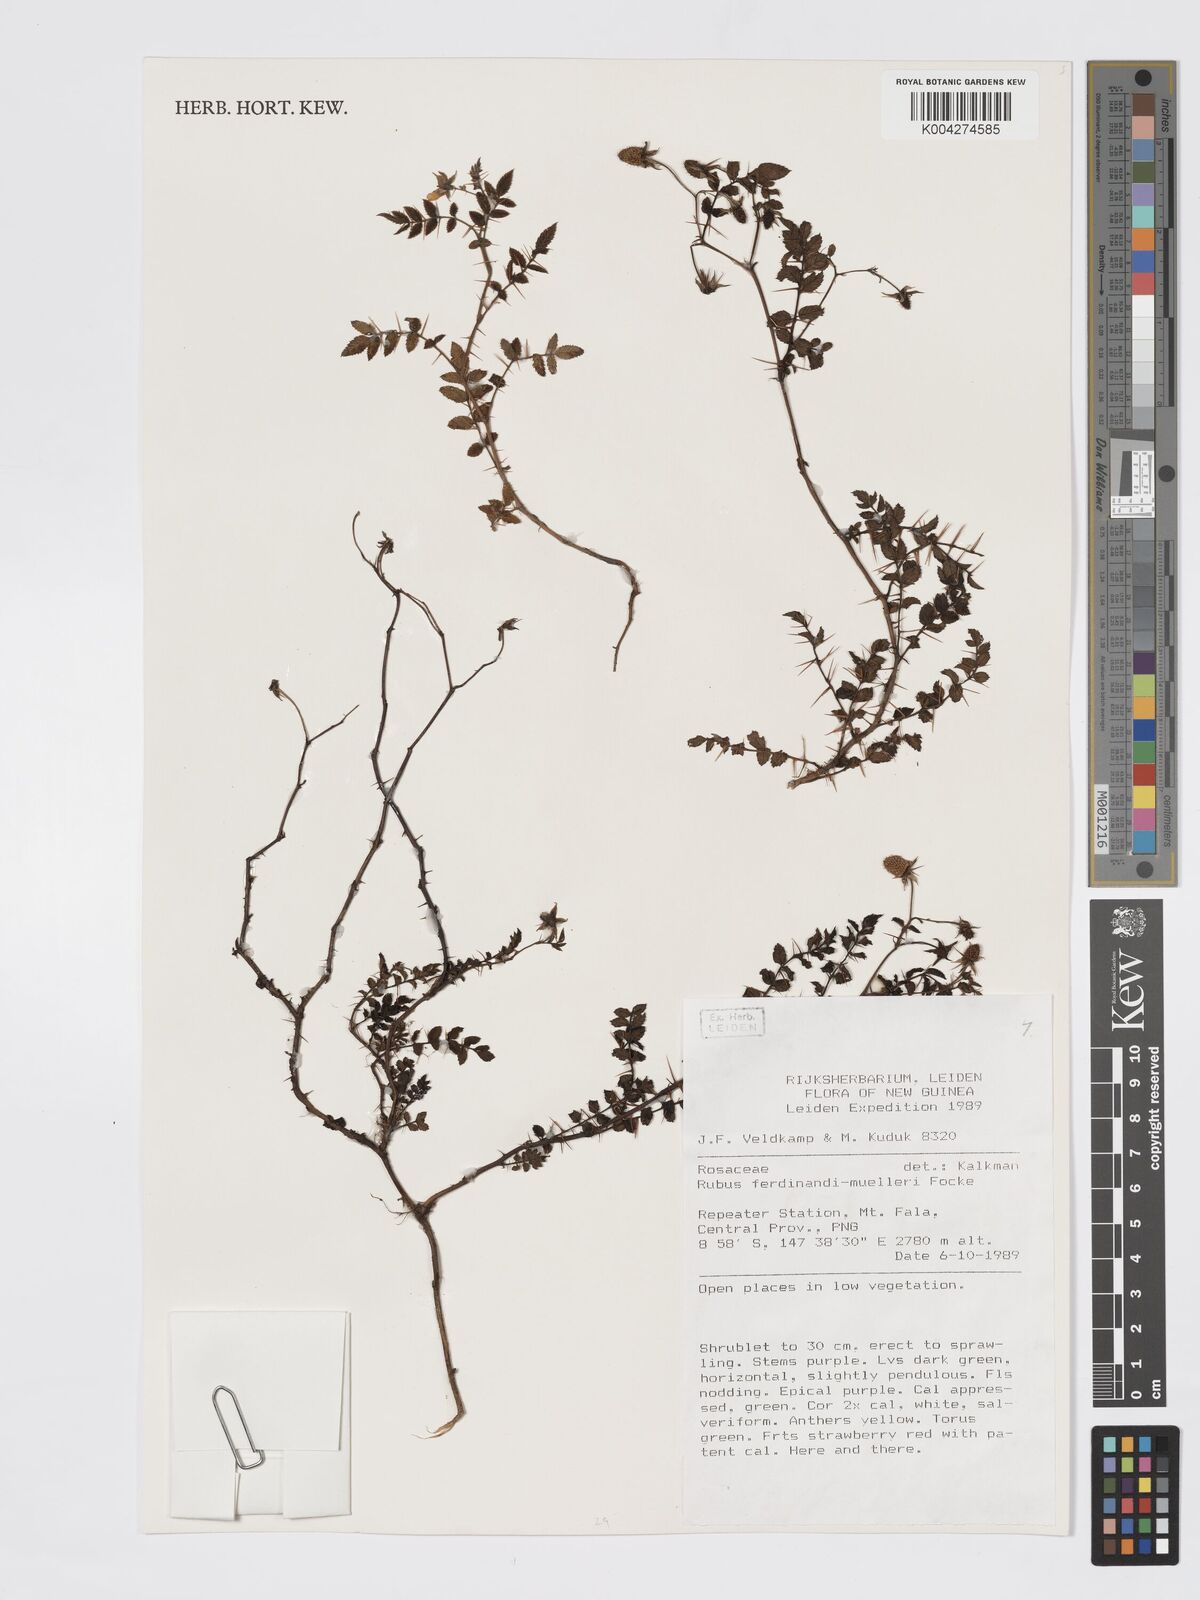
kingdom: Plantae
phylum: Tracheophyta
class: Magnoliopsida
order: Rosales
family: Rosaceae
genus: Rubus
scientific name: Rubus ferdinandimuelleri
